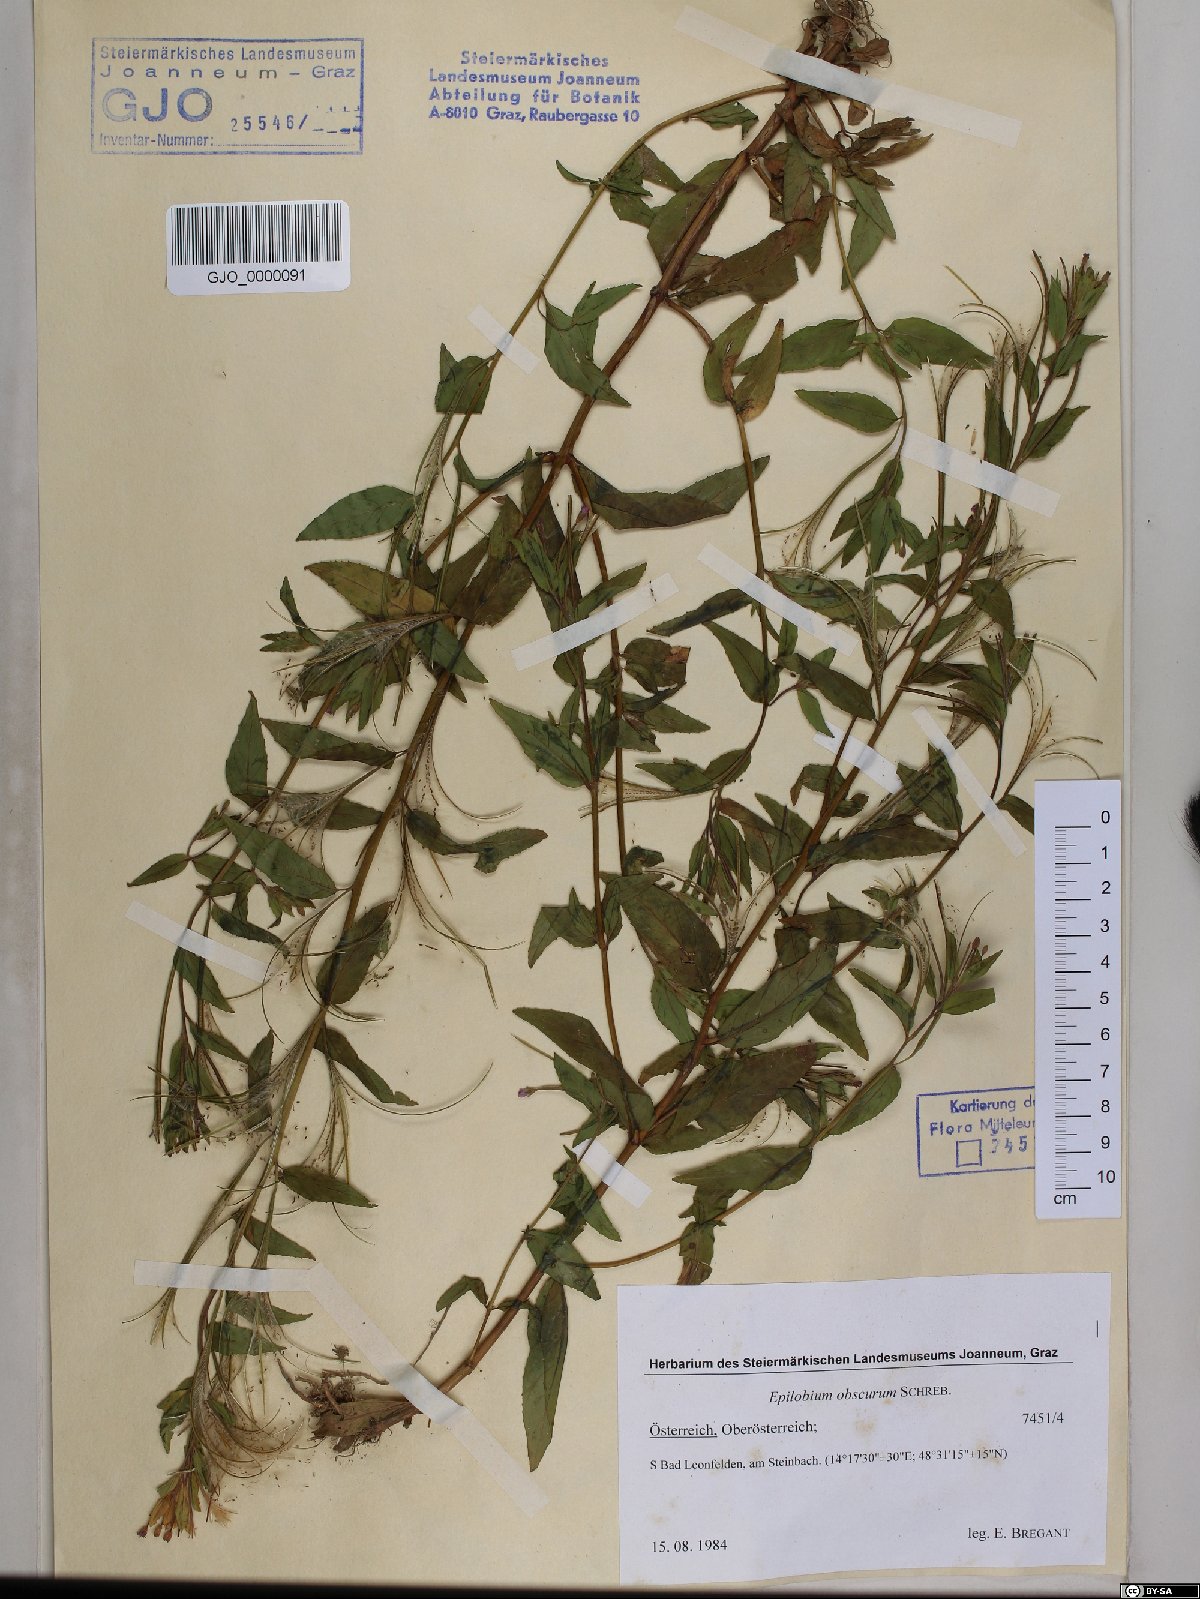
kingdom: Plantae
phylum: Tracheophyta
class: Magnoliopsida
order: Myrtales
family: Onagraceae
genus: Epilobium
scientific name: Epilobium obscurum
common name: Short-fruited willowherb
